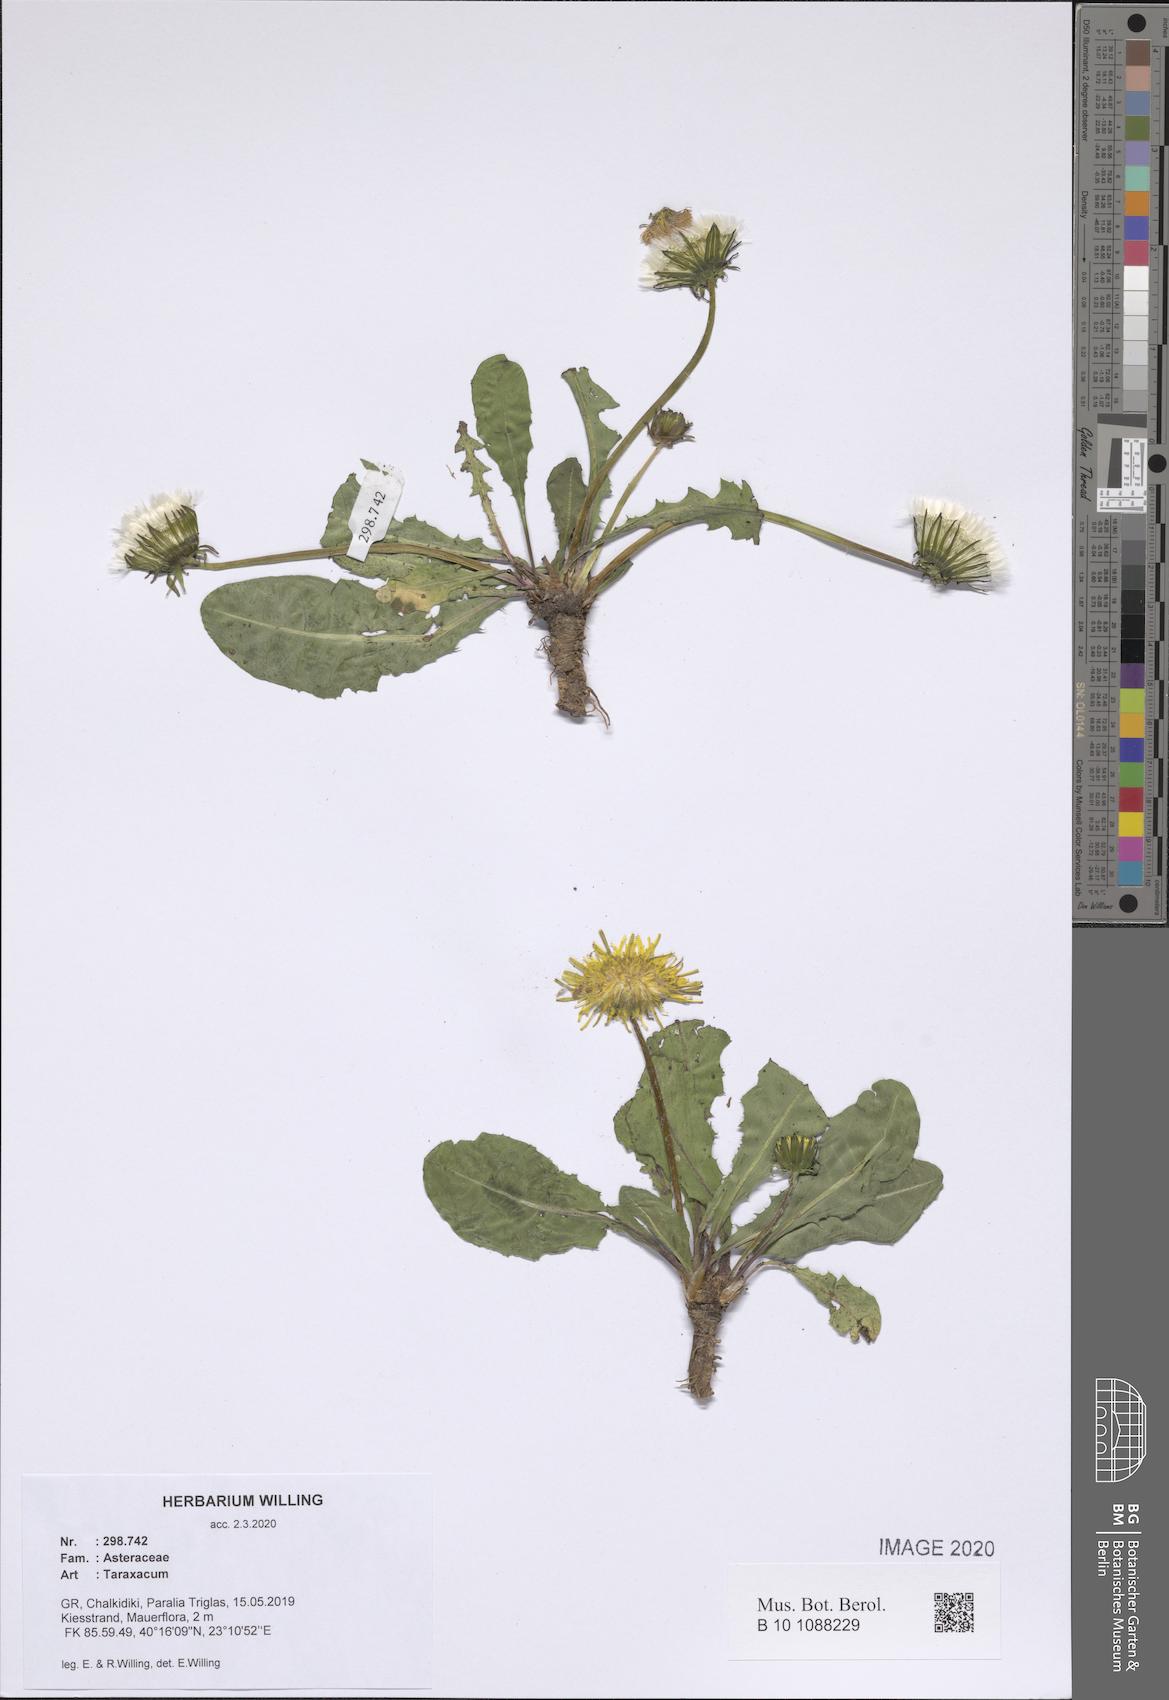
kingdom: Plantae
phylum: Tracheophyta
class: Magnoliopsida
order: Asterales
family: Asteraceae
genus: Taraxacum
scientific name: Taraxacum
